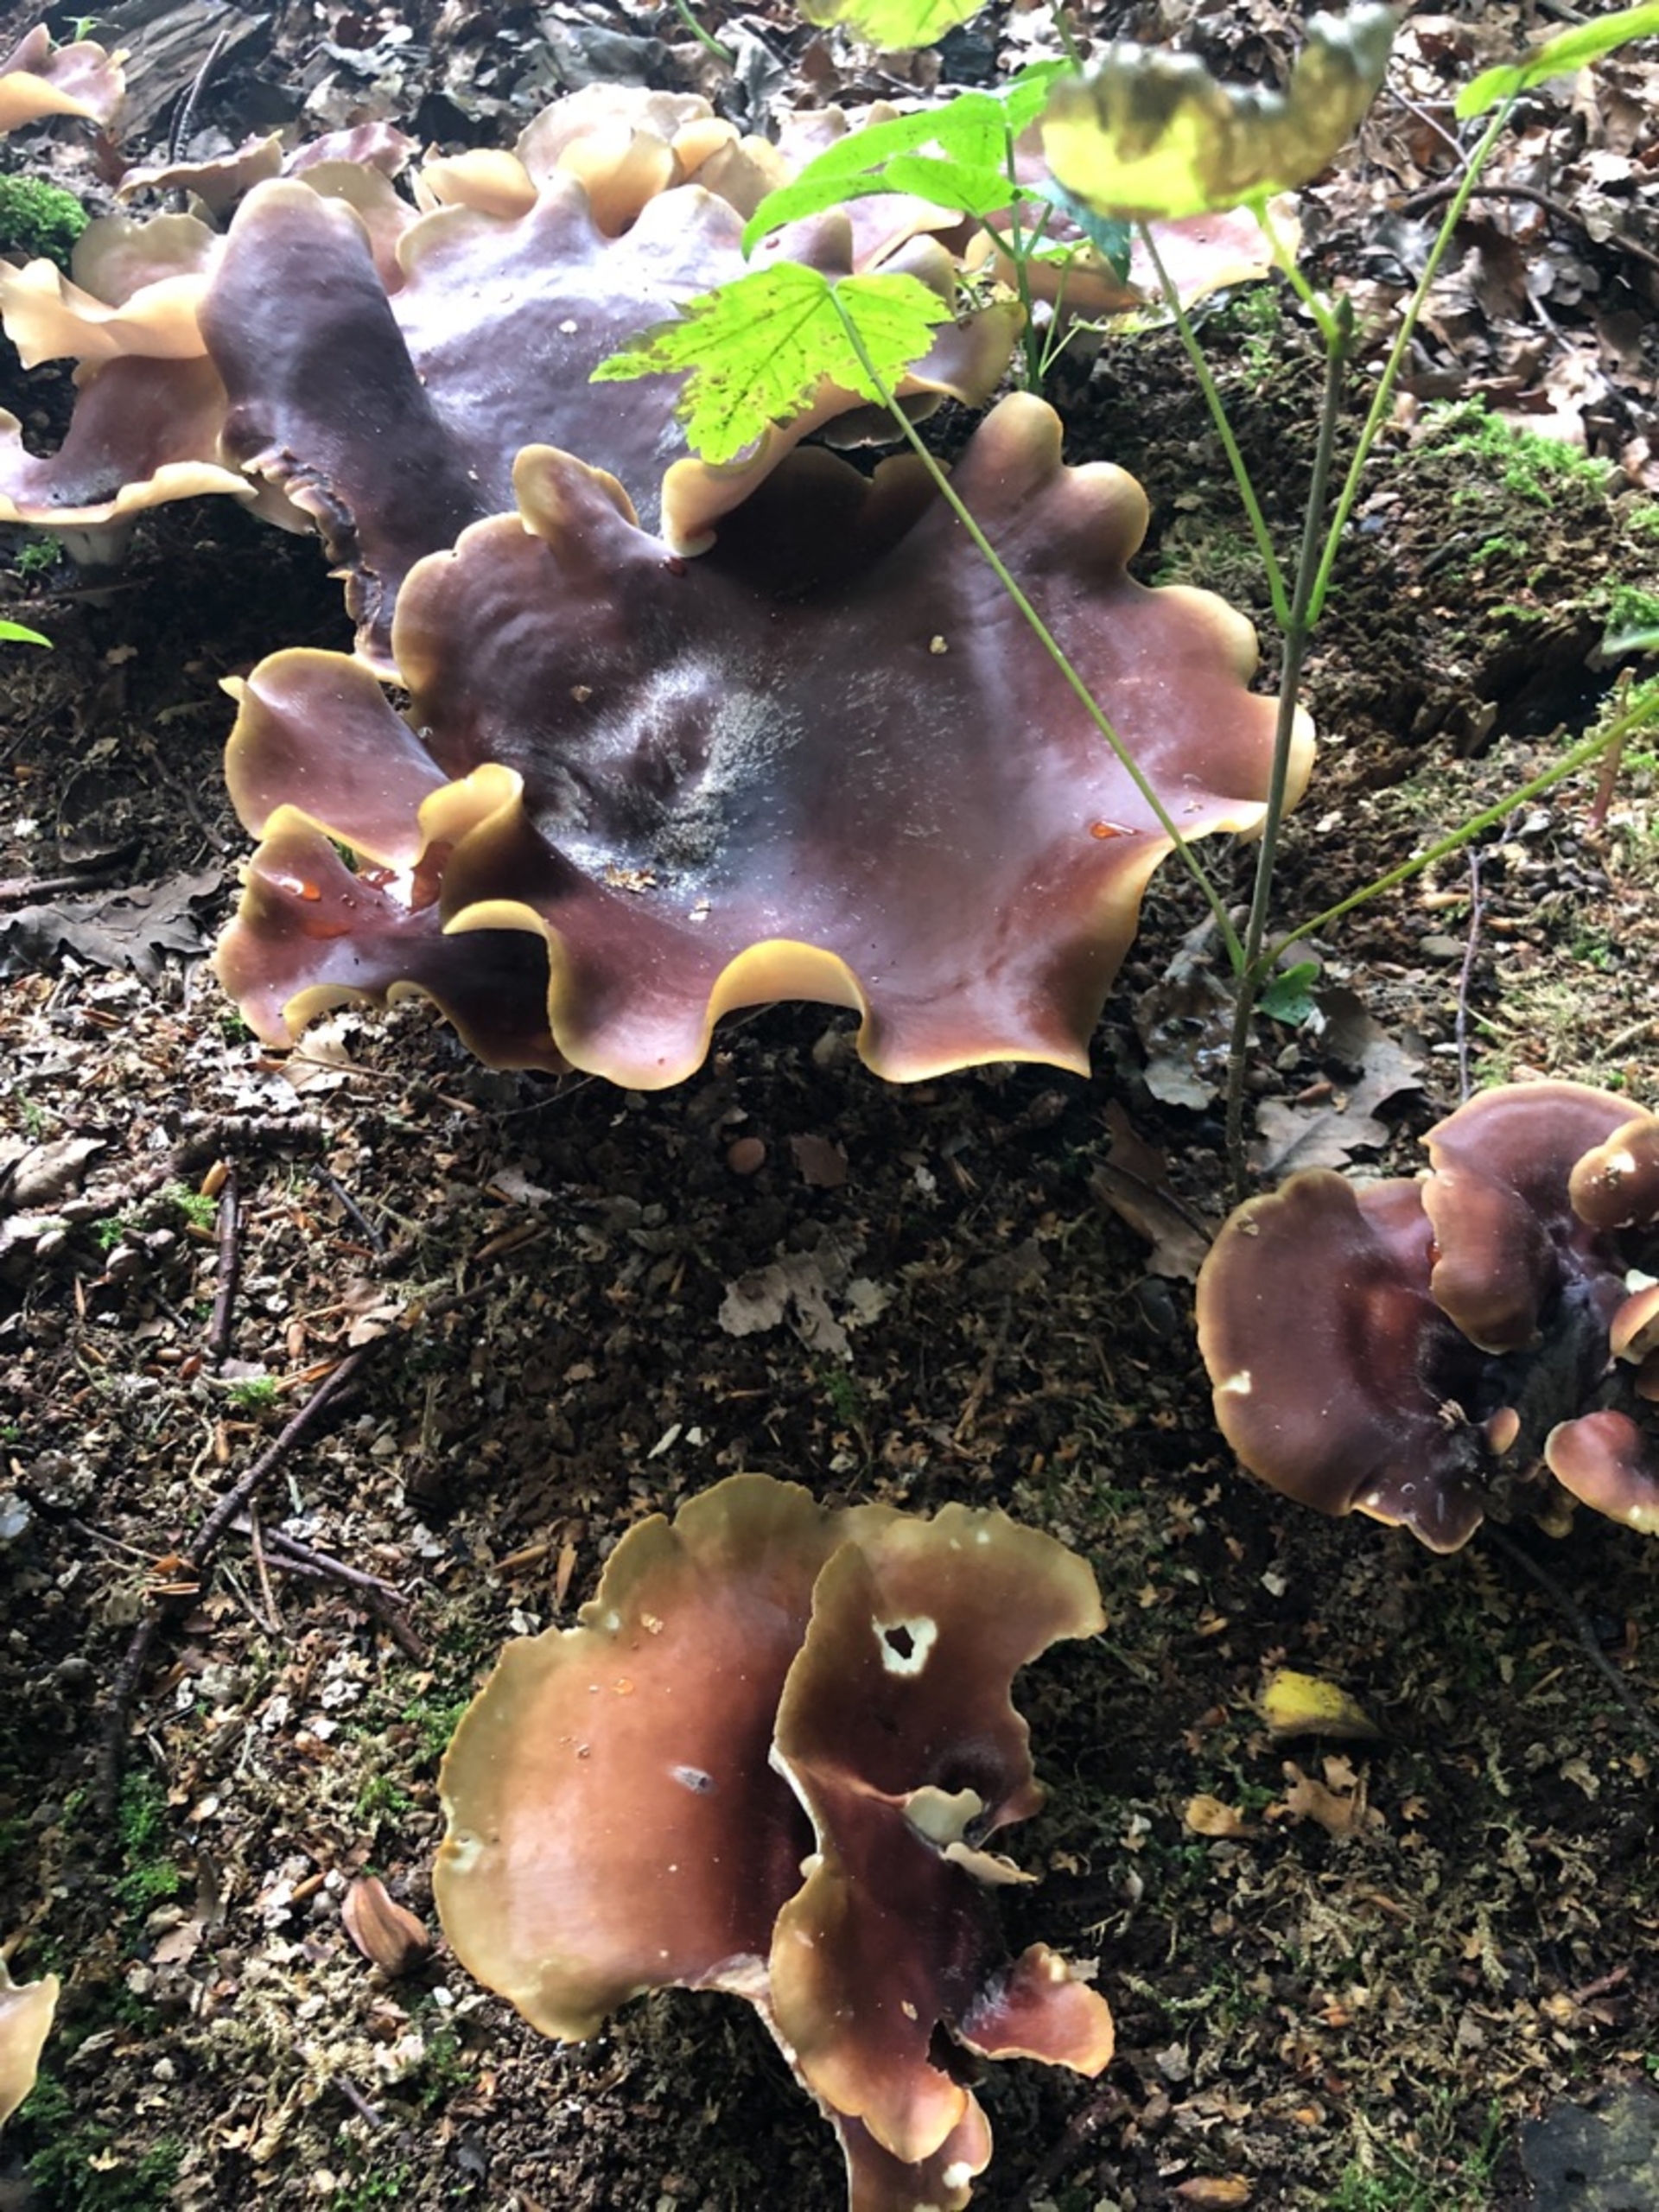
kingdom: Fungi
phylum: Basidiomycota
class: Agaricomycetes
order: Polyporales
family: Polyporaceae
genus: Picipes
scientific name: Picipes badius
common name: Kastaniebrun stilkporesvamp
